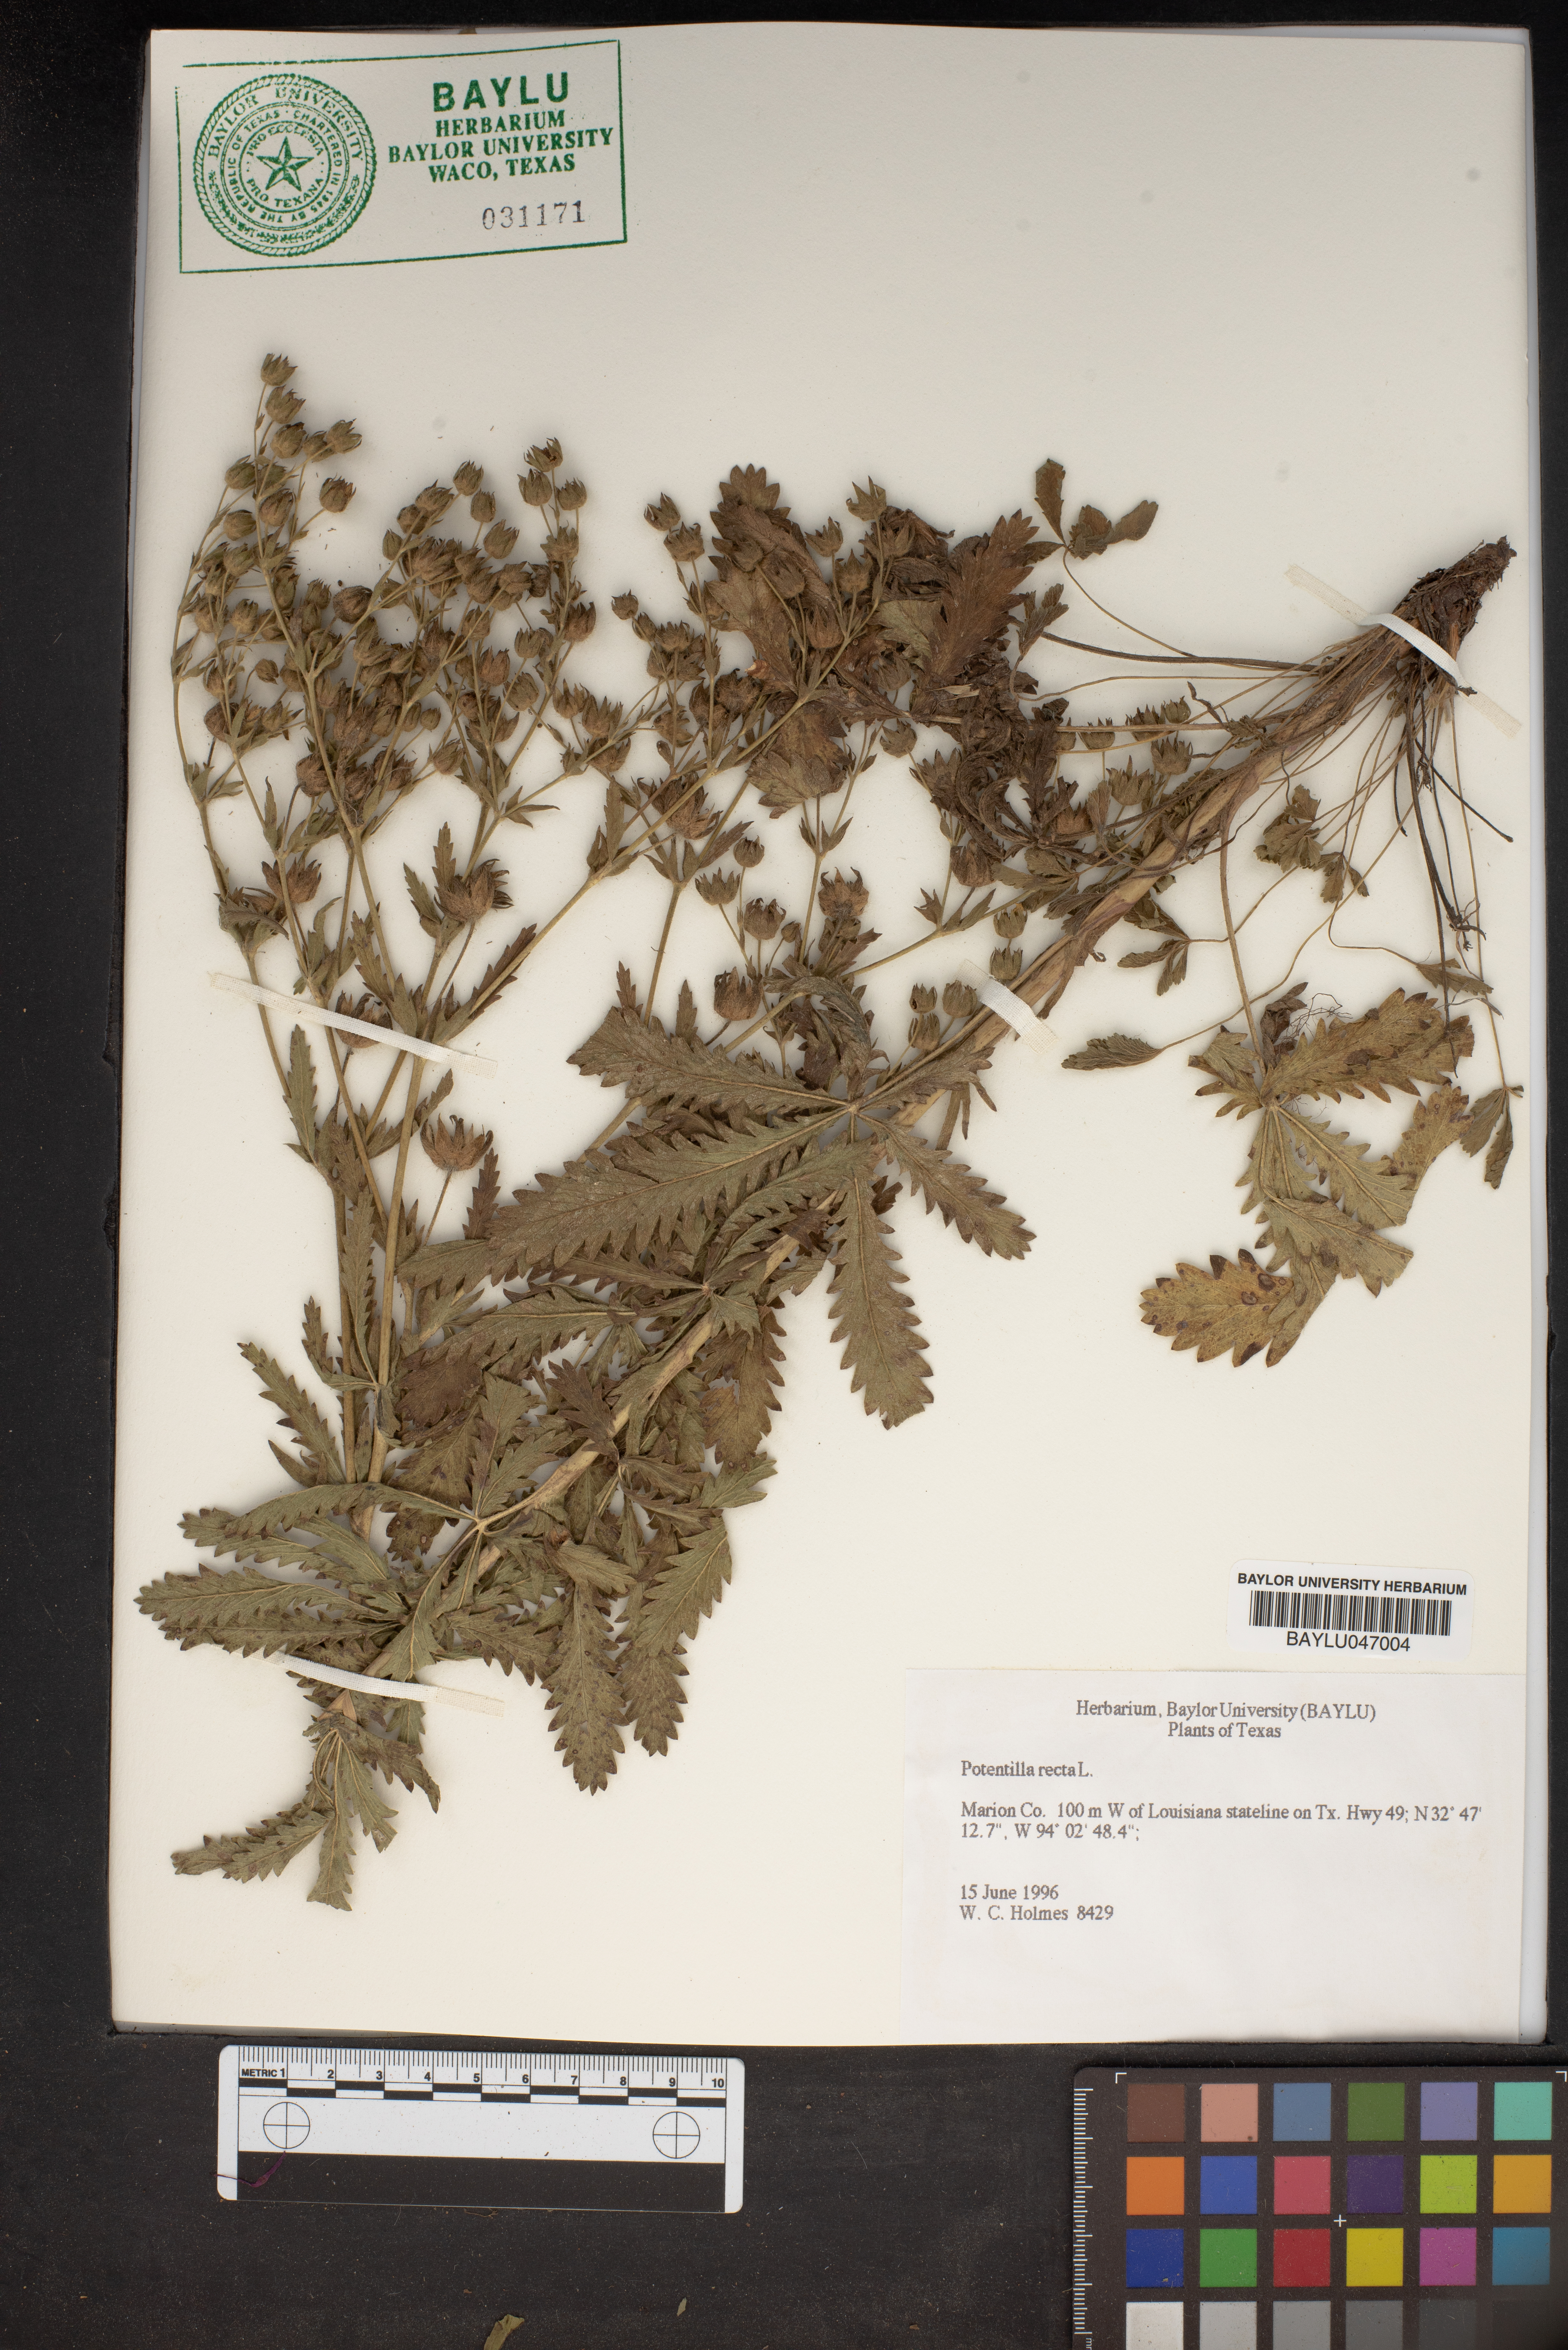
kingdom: Plantae
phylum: Tracheophyta
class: Magnoliopsida
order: Rosales
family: Rosaceae
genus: Potentilla
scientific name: Potentilla recta
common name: Sulphur cinquefoil
